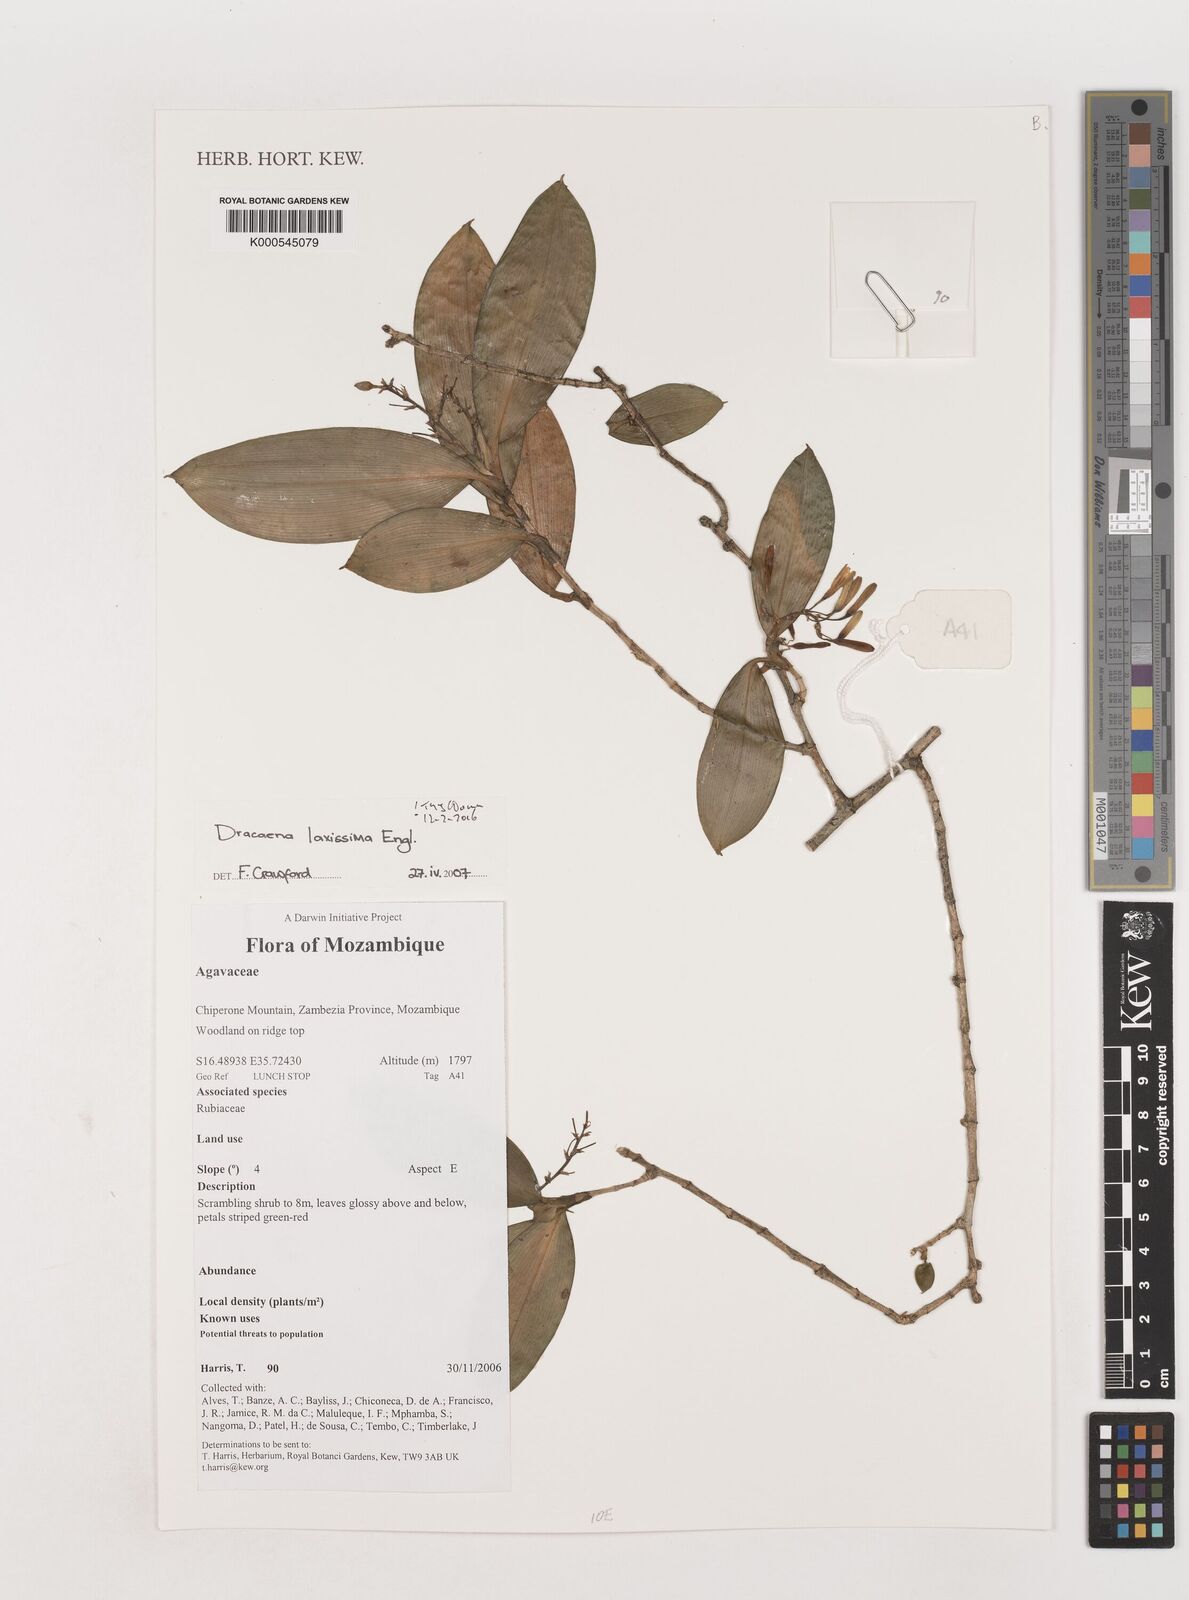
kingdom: Plantae
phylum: Tracheophyta
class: Liliopsida
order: Asparagales
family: Asparagaceae
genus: Dracaena
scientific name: Dracaena laxissima
